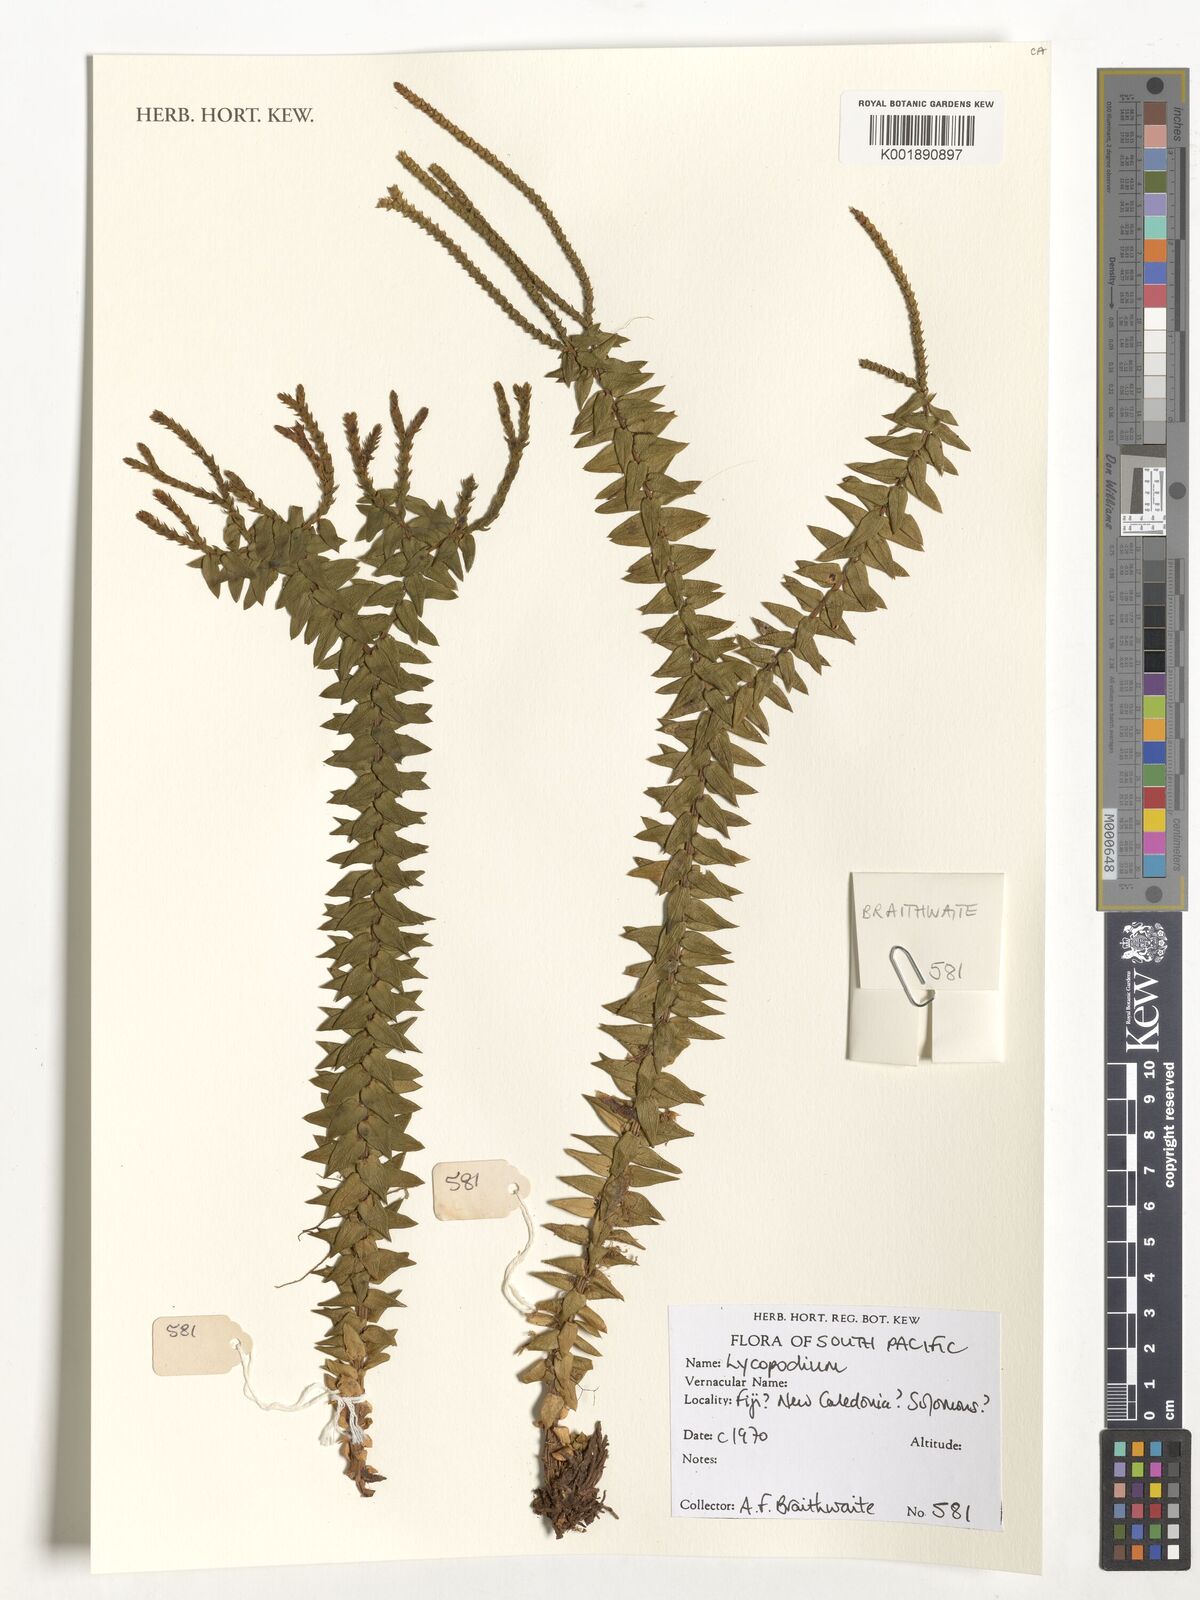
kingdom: Plantae
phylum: Tracheophyta
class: Lycopodiopsida
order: Lycopodiales
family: Lycopodiaceae
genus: Lycopodium
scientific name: Lycopodium
